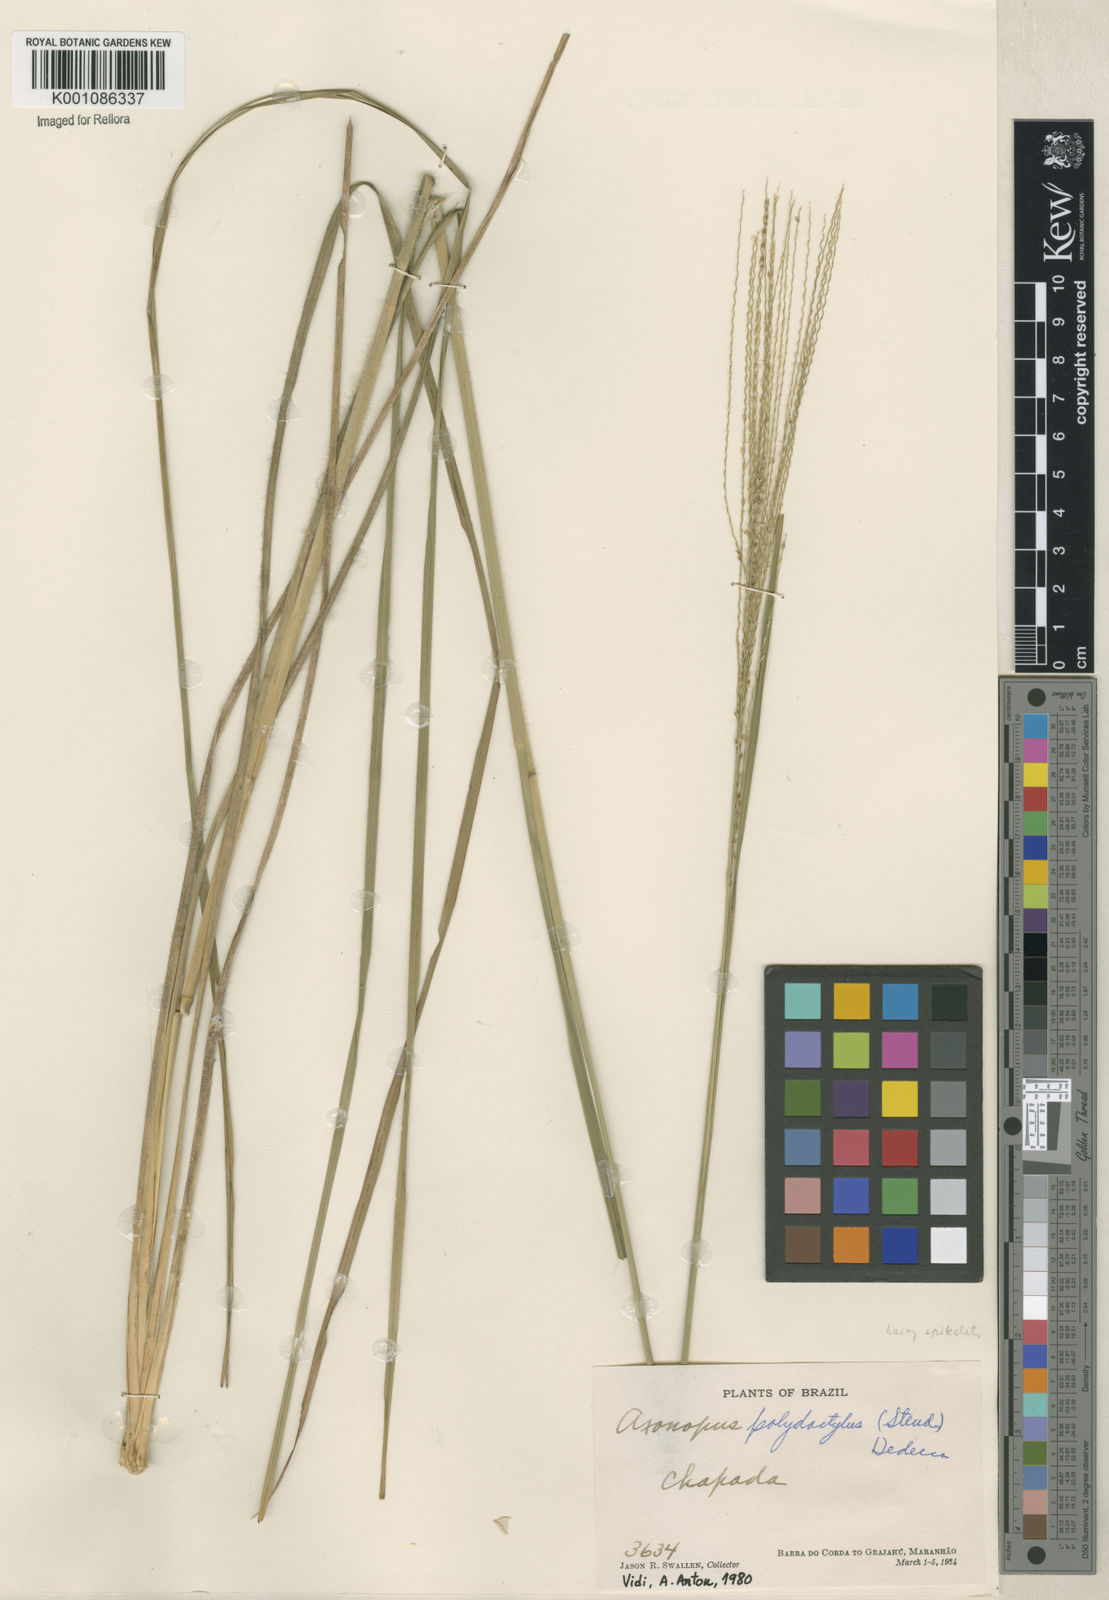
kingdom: Plantae
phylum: Tracheophyta
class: Liliopsida
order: Poales
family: Poaceae
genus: Axonopus
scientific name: Axonopus polydactylus
